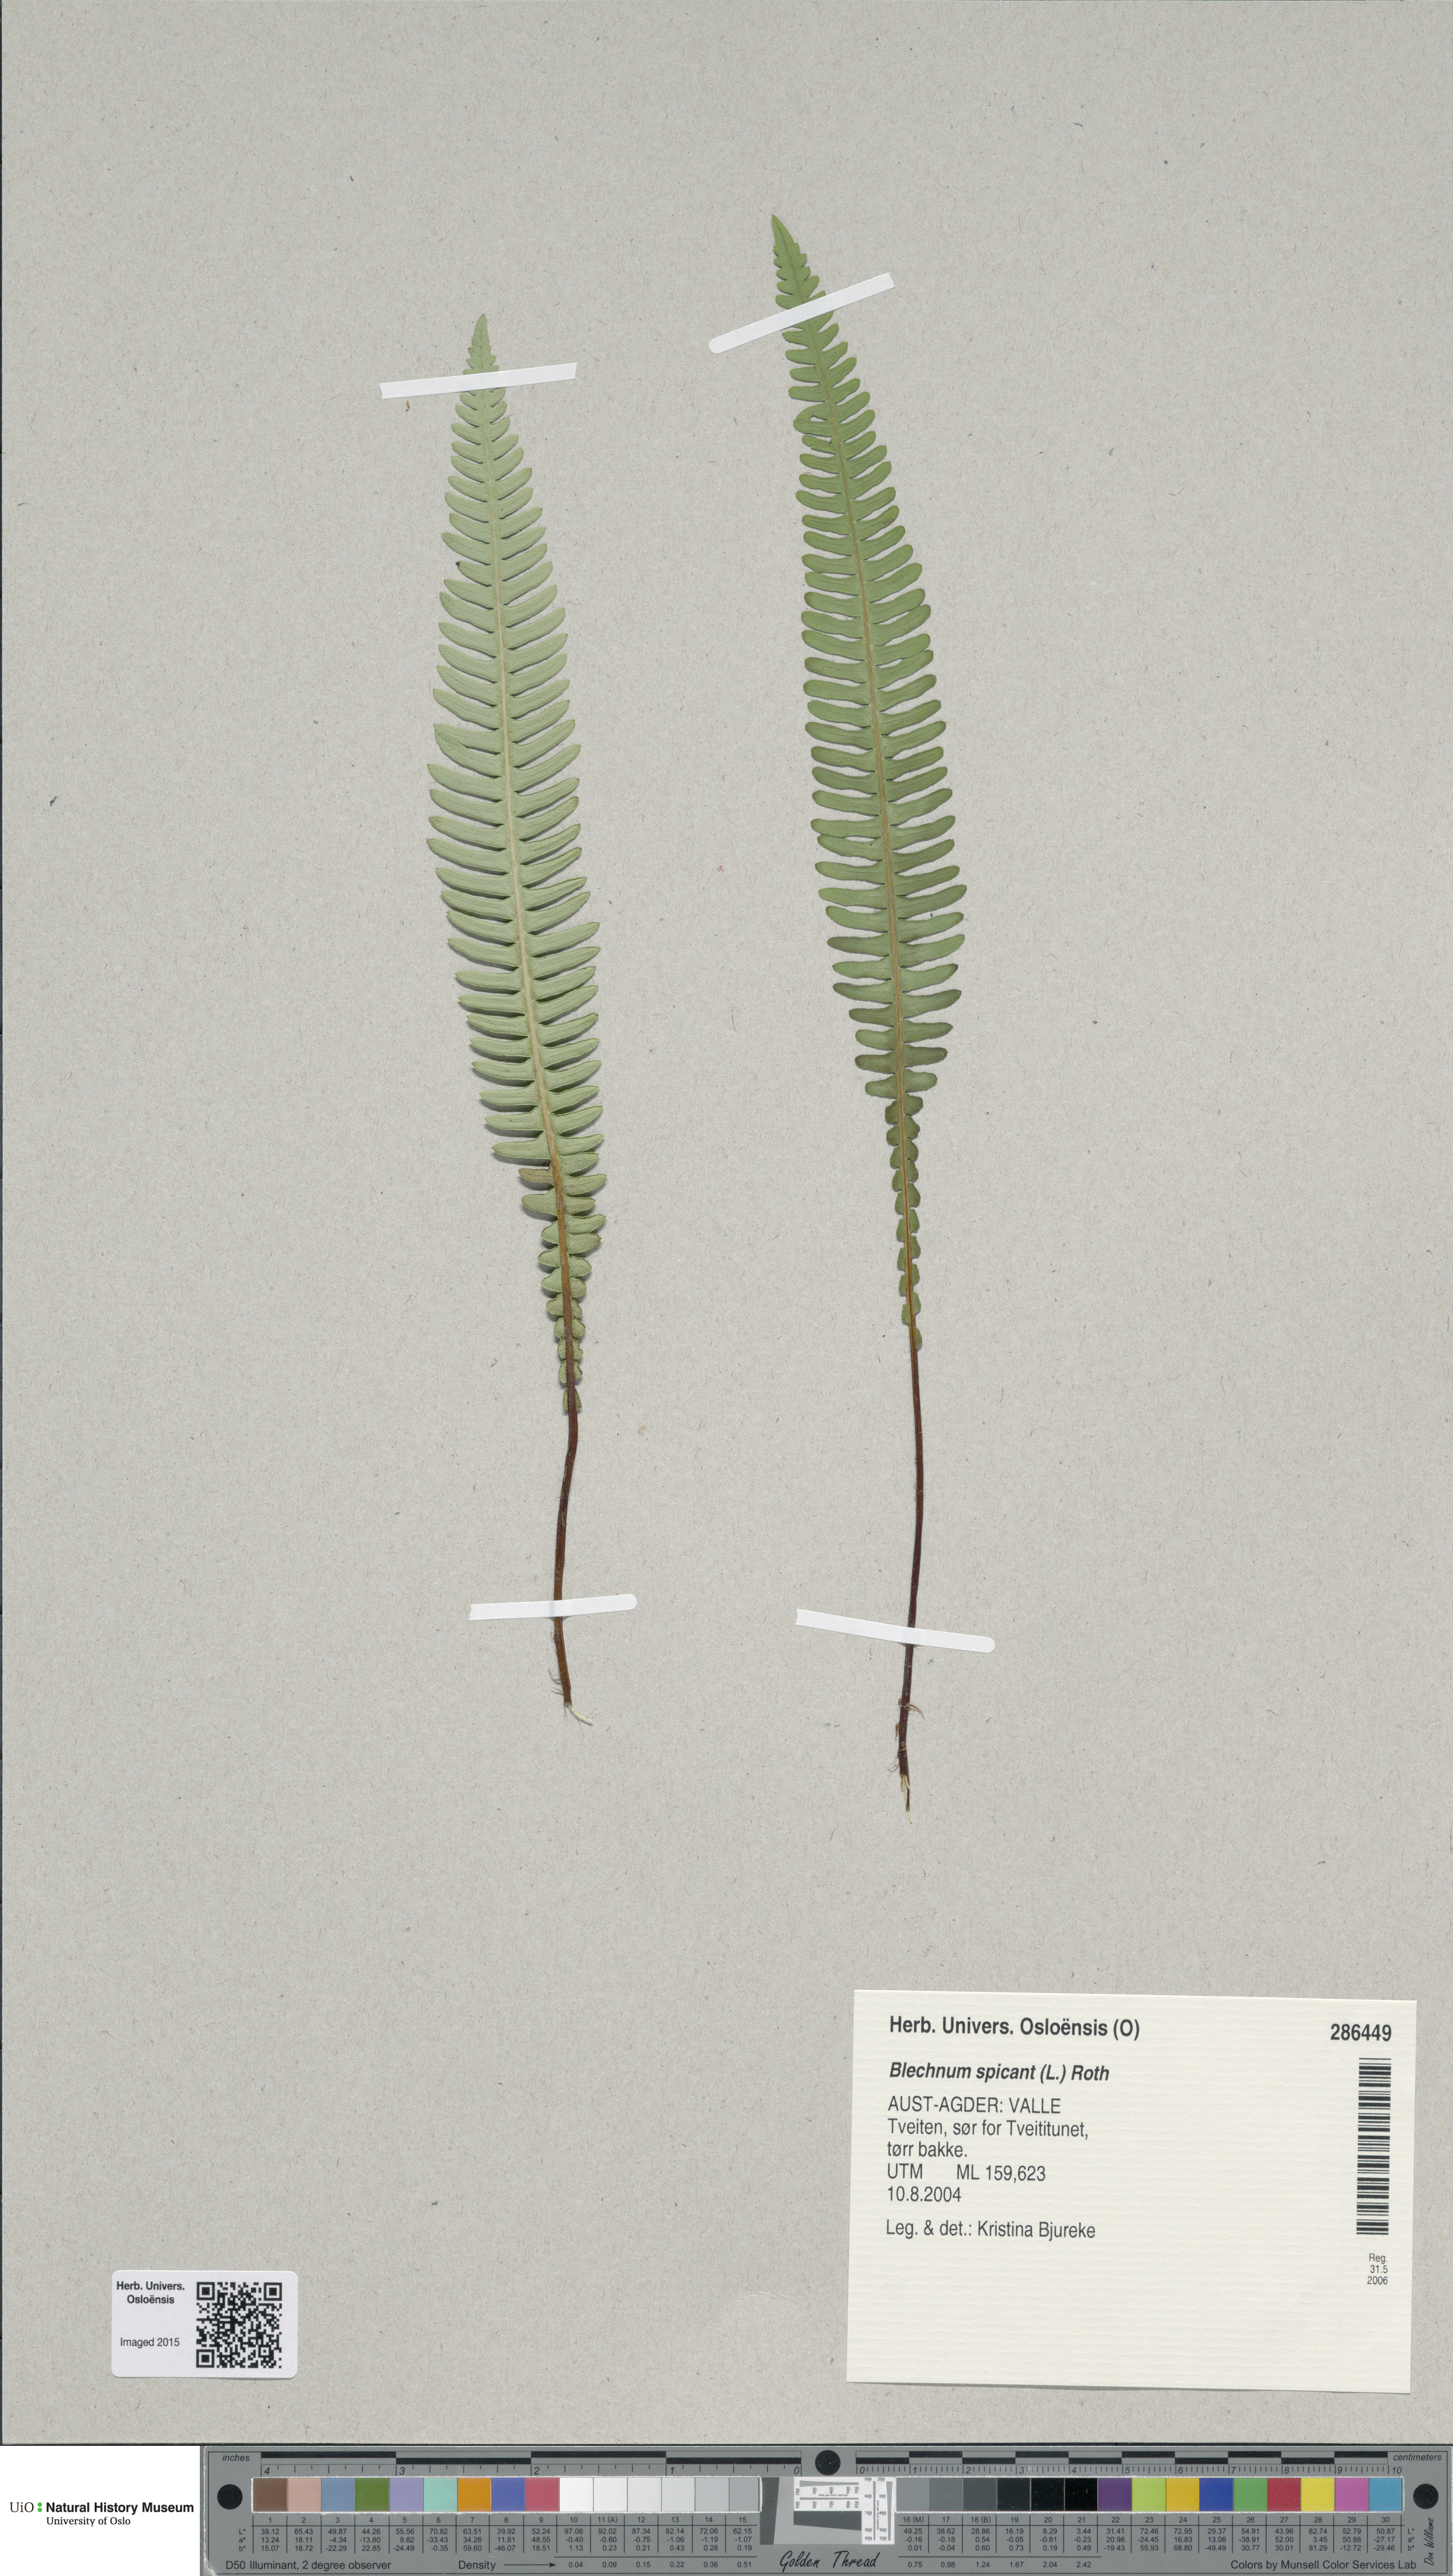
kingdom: Plantae
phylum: Tracheophyta
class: Polypodiopsida
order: Polypodiales
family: Blechnaceae
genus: Struthiopteris
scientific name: Struthiopteris spicant
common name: Deer fern
